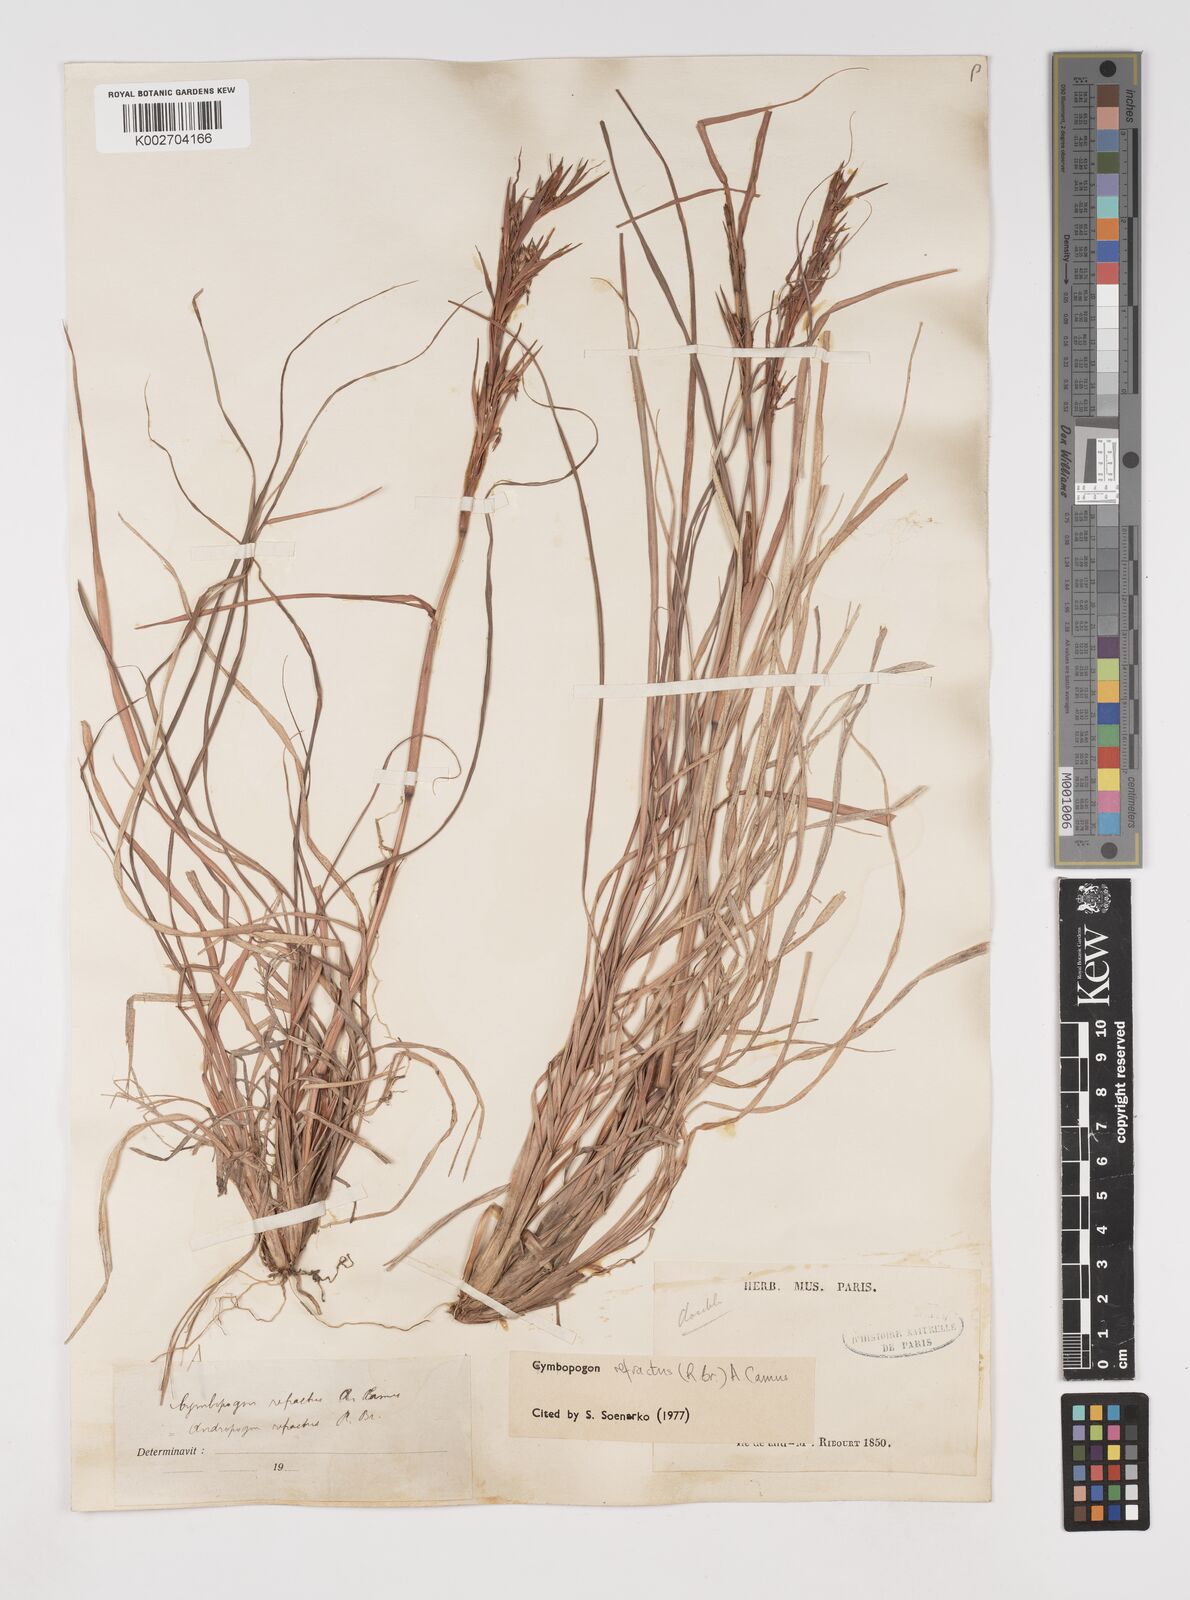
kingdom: Plantae
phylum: Tracheophyta
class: Liliopsida
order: Poales
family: Poaceae
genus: Cymbopogon
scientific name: Cymbopogon refractus
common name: Barbwire grass
